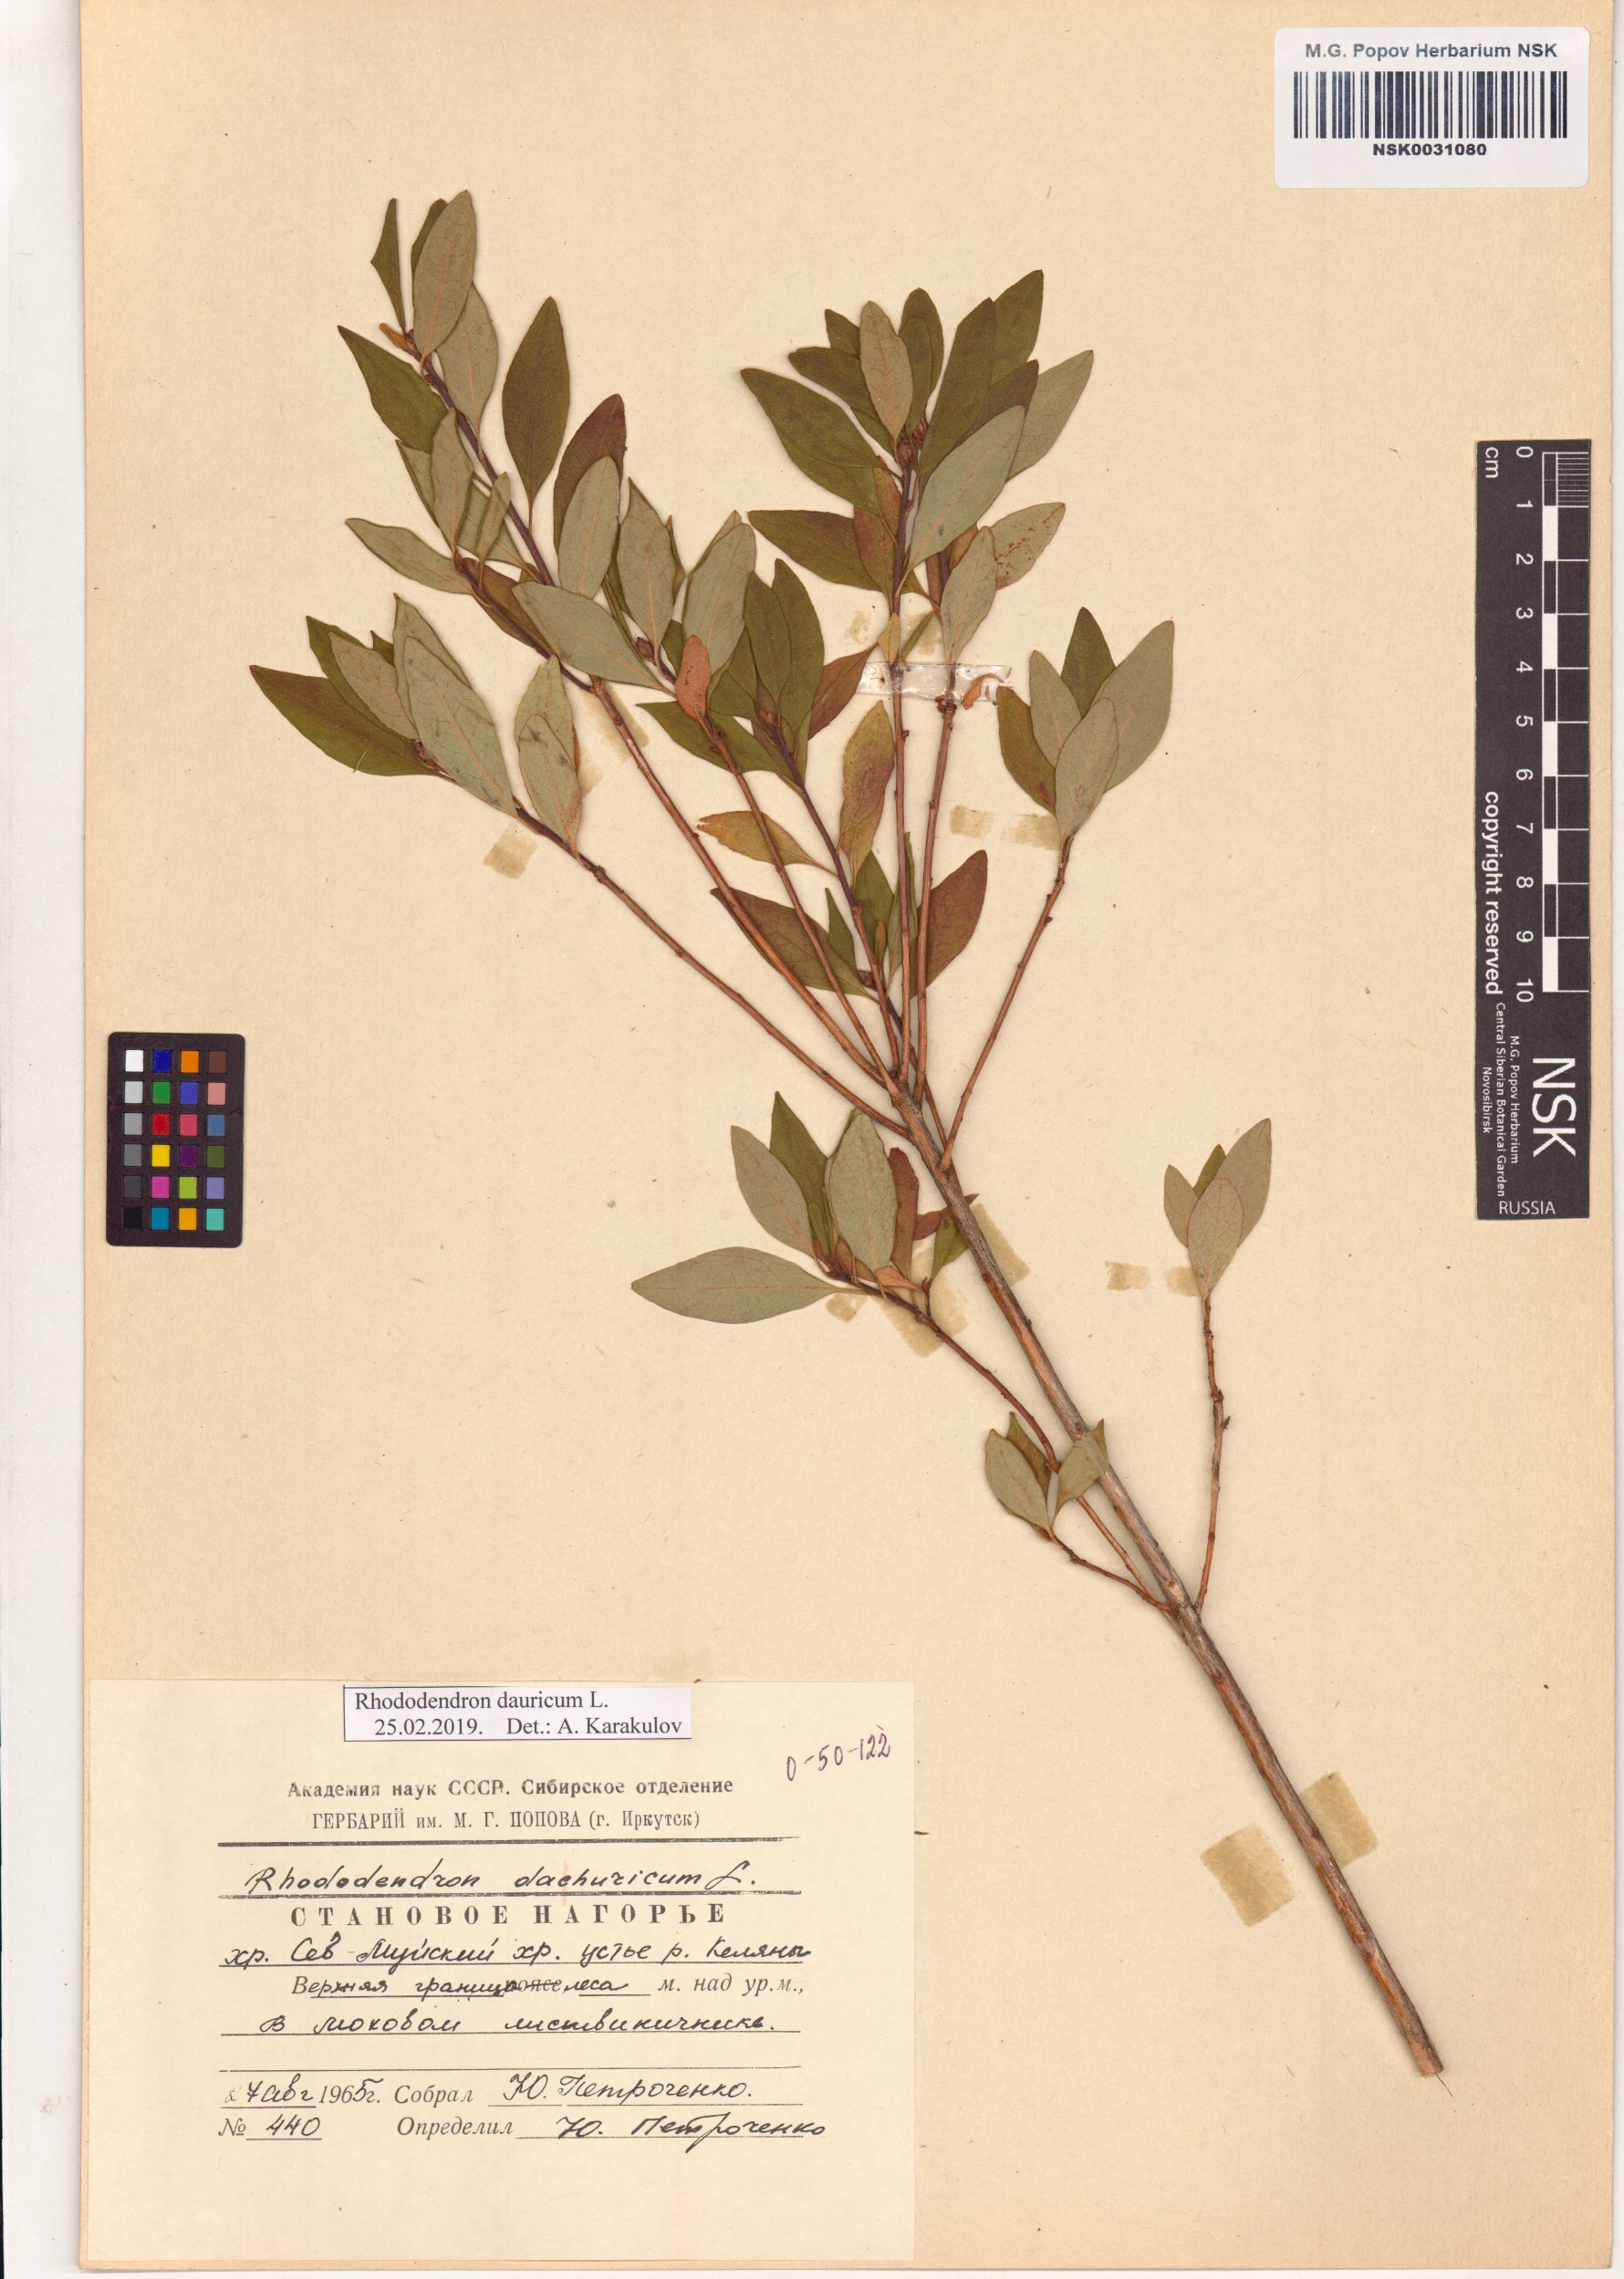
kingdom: Plantae
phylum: Tracheophyta
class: Magnoliopsida
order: Ericales
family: Ericaceae
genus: Rhododendron
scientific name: Rhododendron dauricum
